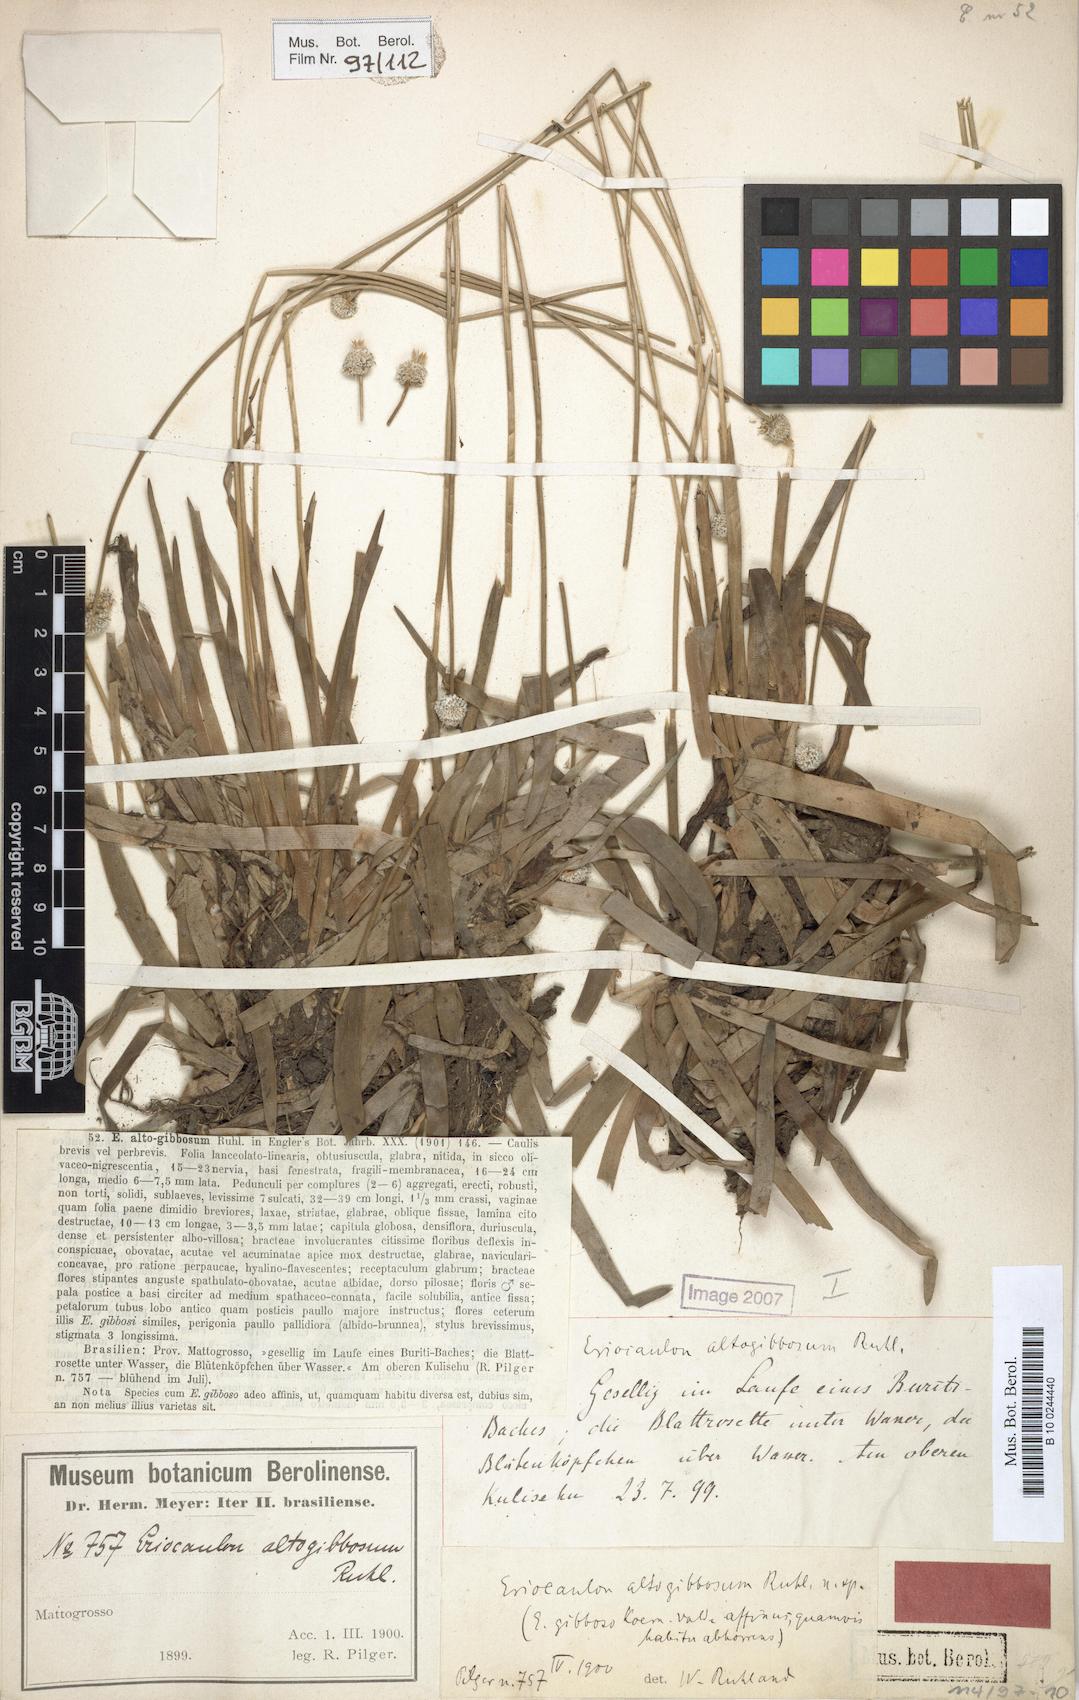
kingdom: Plantae
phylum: Tracheophyta
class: Liliopsida
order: Poales
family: Eriocaulaceae
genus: Eriocaulon
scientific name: Eriocaulon altogibbosum
